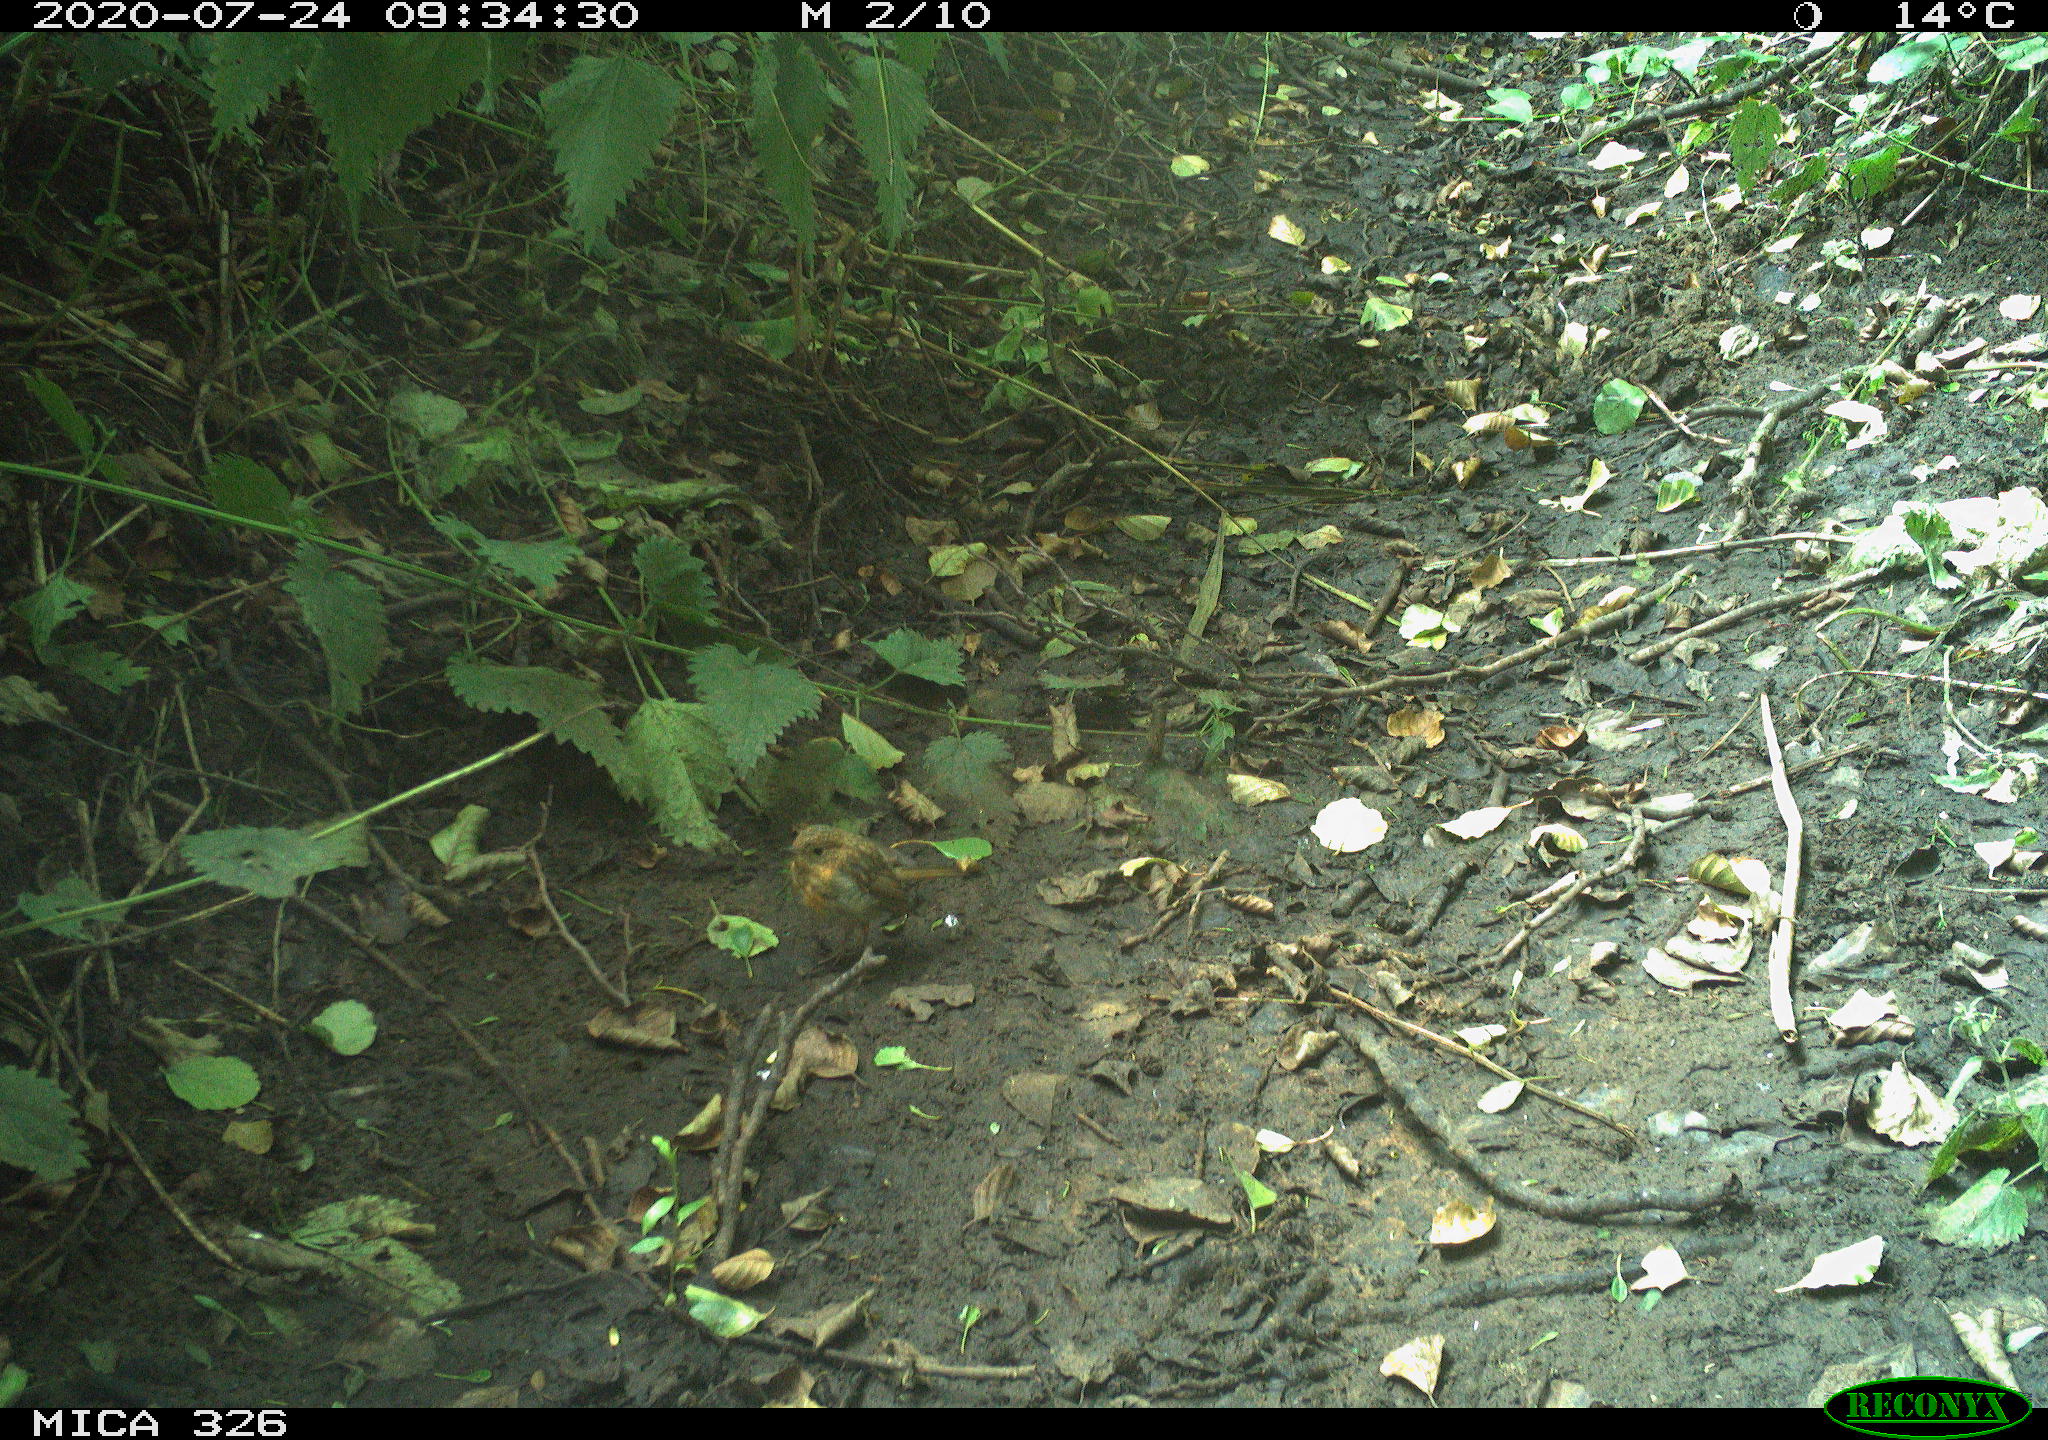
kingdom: Animalia
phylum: Chordata
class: Aves
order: Passeriformes
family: Muscicapidae
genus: Erithacus
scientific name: Erithacus rubecula
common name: European robin
